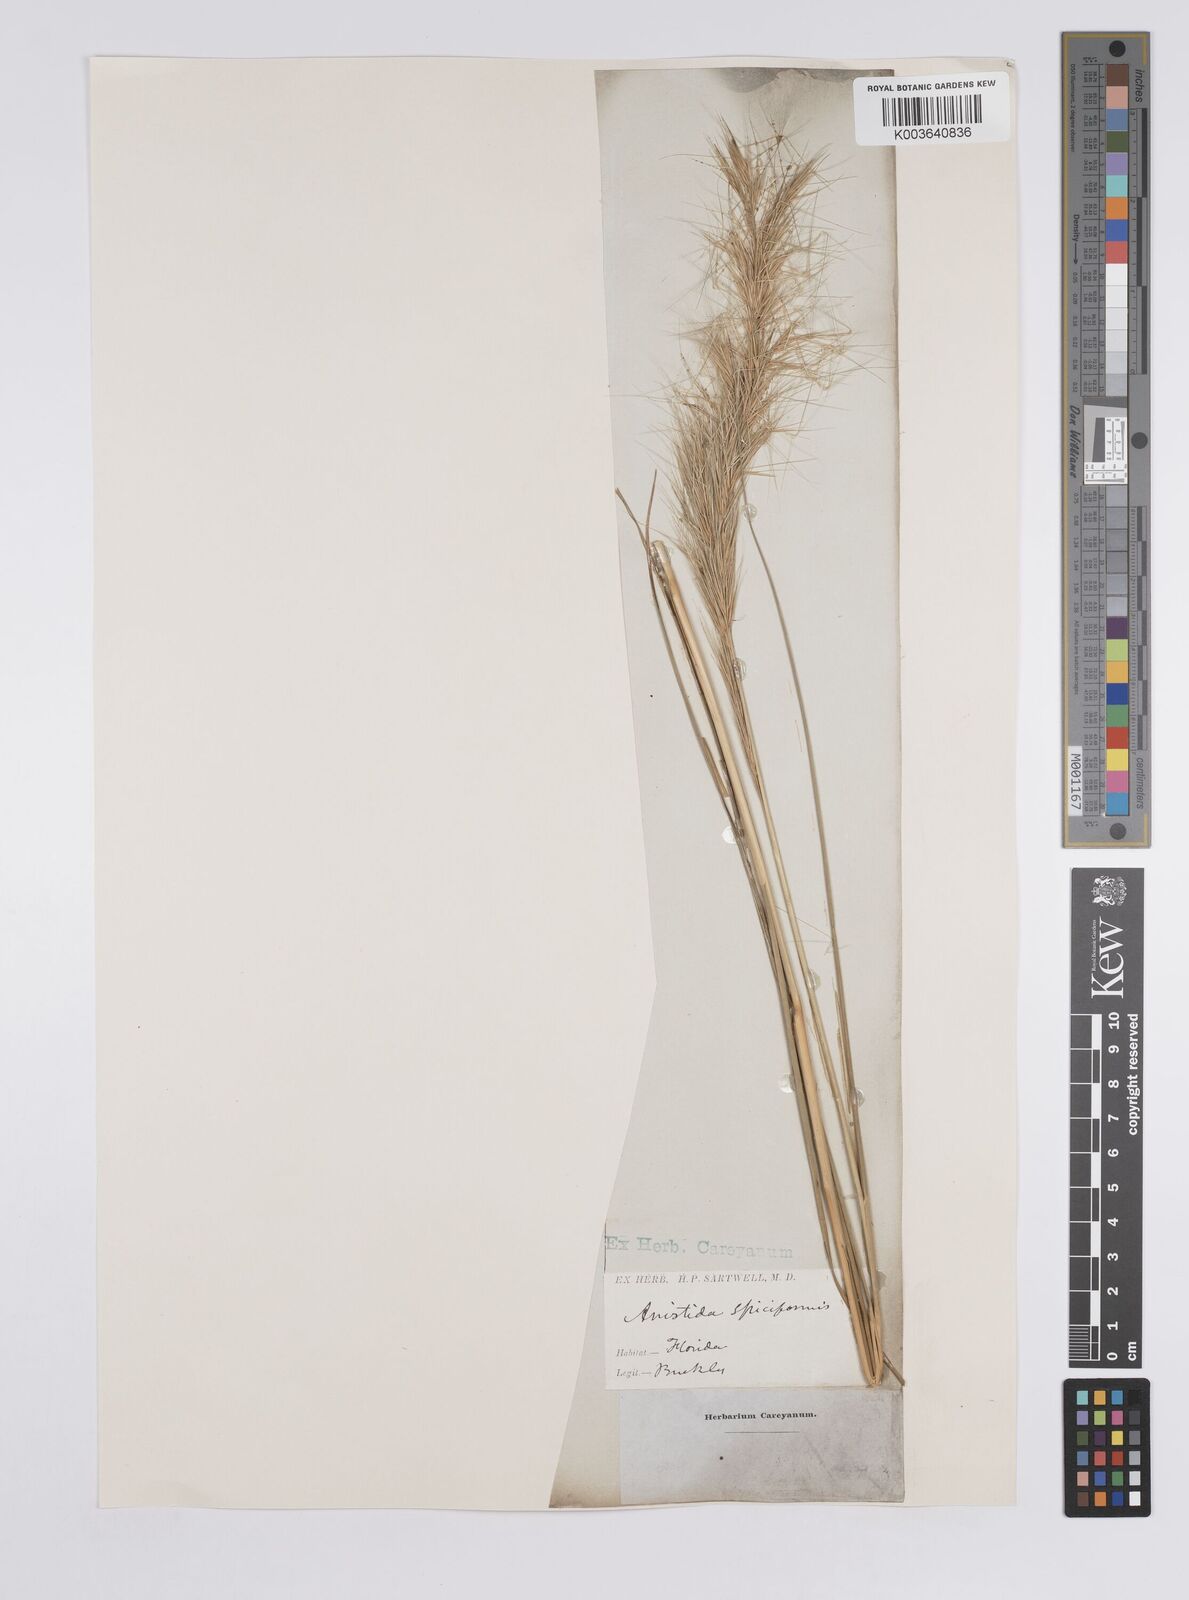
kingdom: Plantae
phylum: Tracheophyta
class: Liliopsida
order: Poales
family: Poaceae
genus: Aristida
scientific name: Aristida spiciformis
